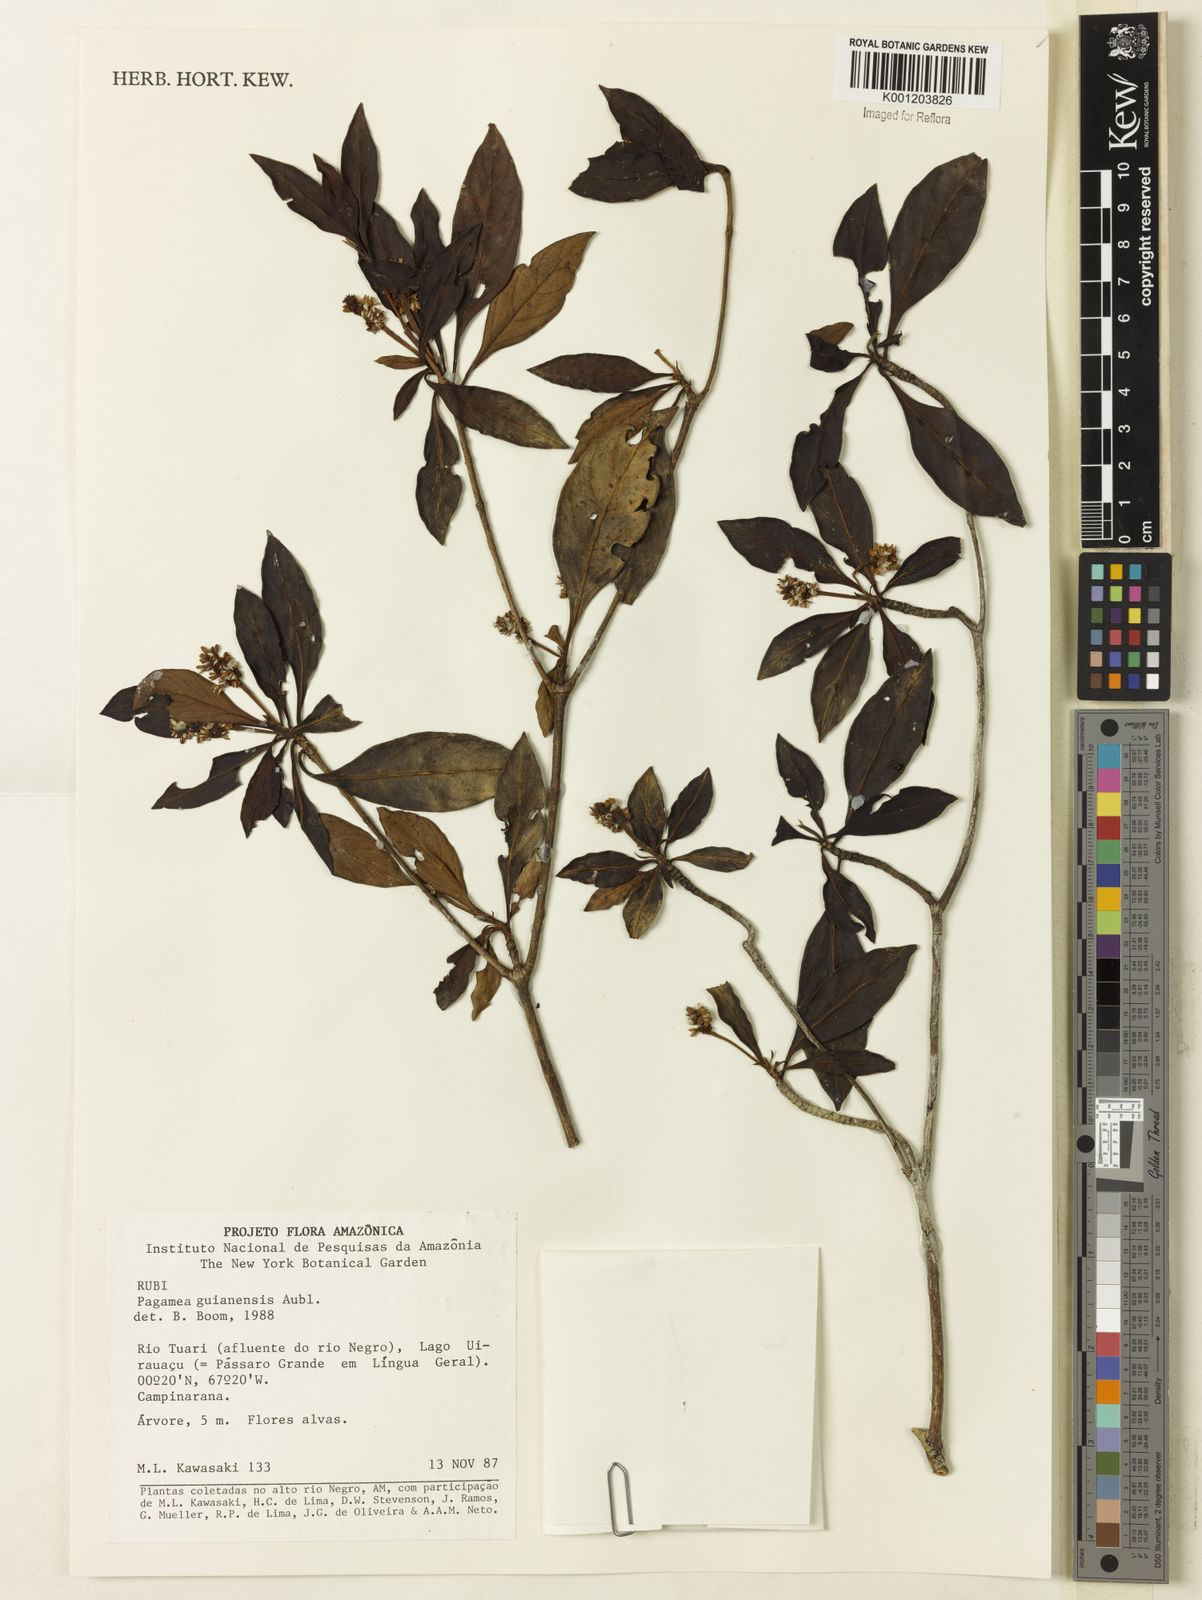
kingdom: Plantae
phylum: Tracheophyta
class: Magnoliopsida
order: Gentianales
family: Rubiaceae
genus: Pagamea
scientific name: Pagamea guianensis
